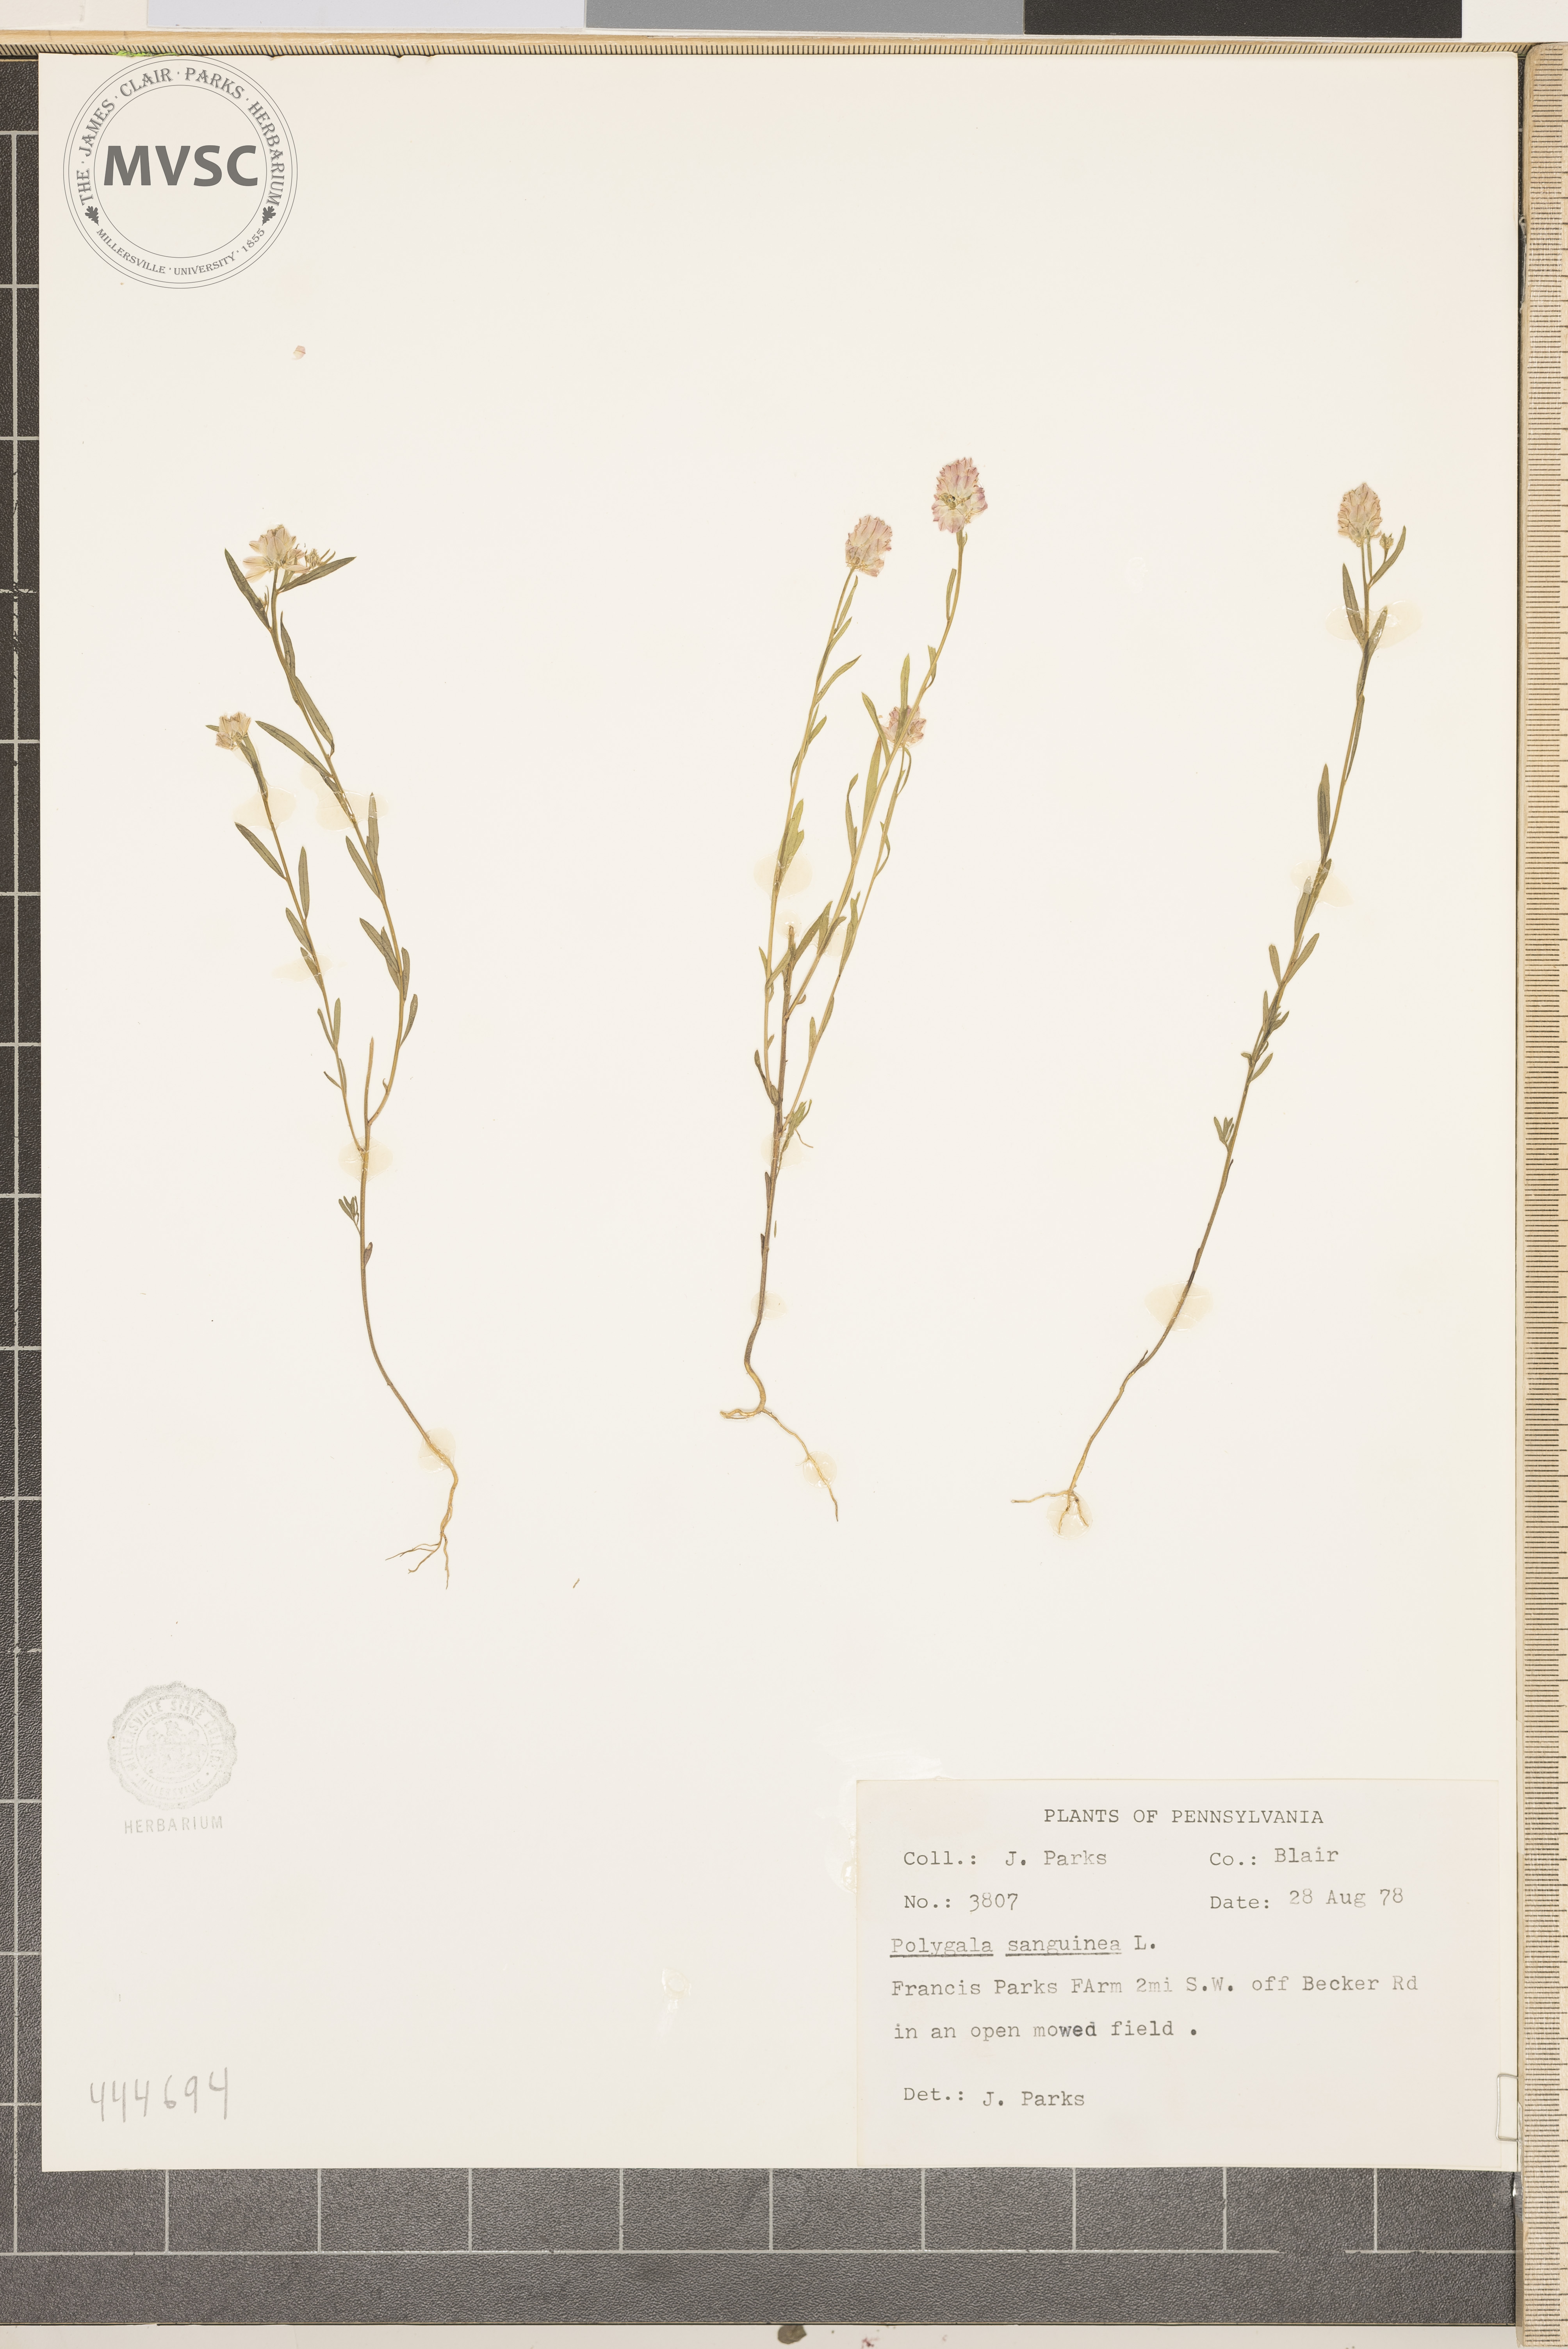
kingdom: Plantae
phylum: Tracheophyta
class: Magnoliopsida
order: Fabales
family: Polygalaceae
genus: Polygala
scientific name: Polygala sanguinea
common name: Blood milkwort
